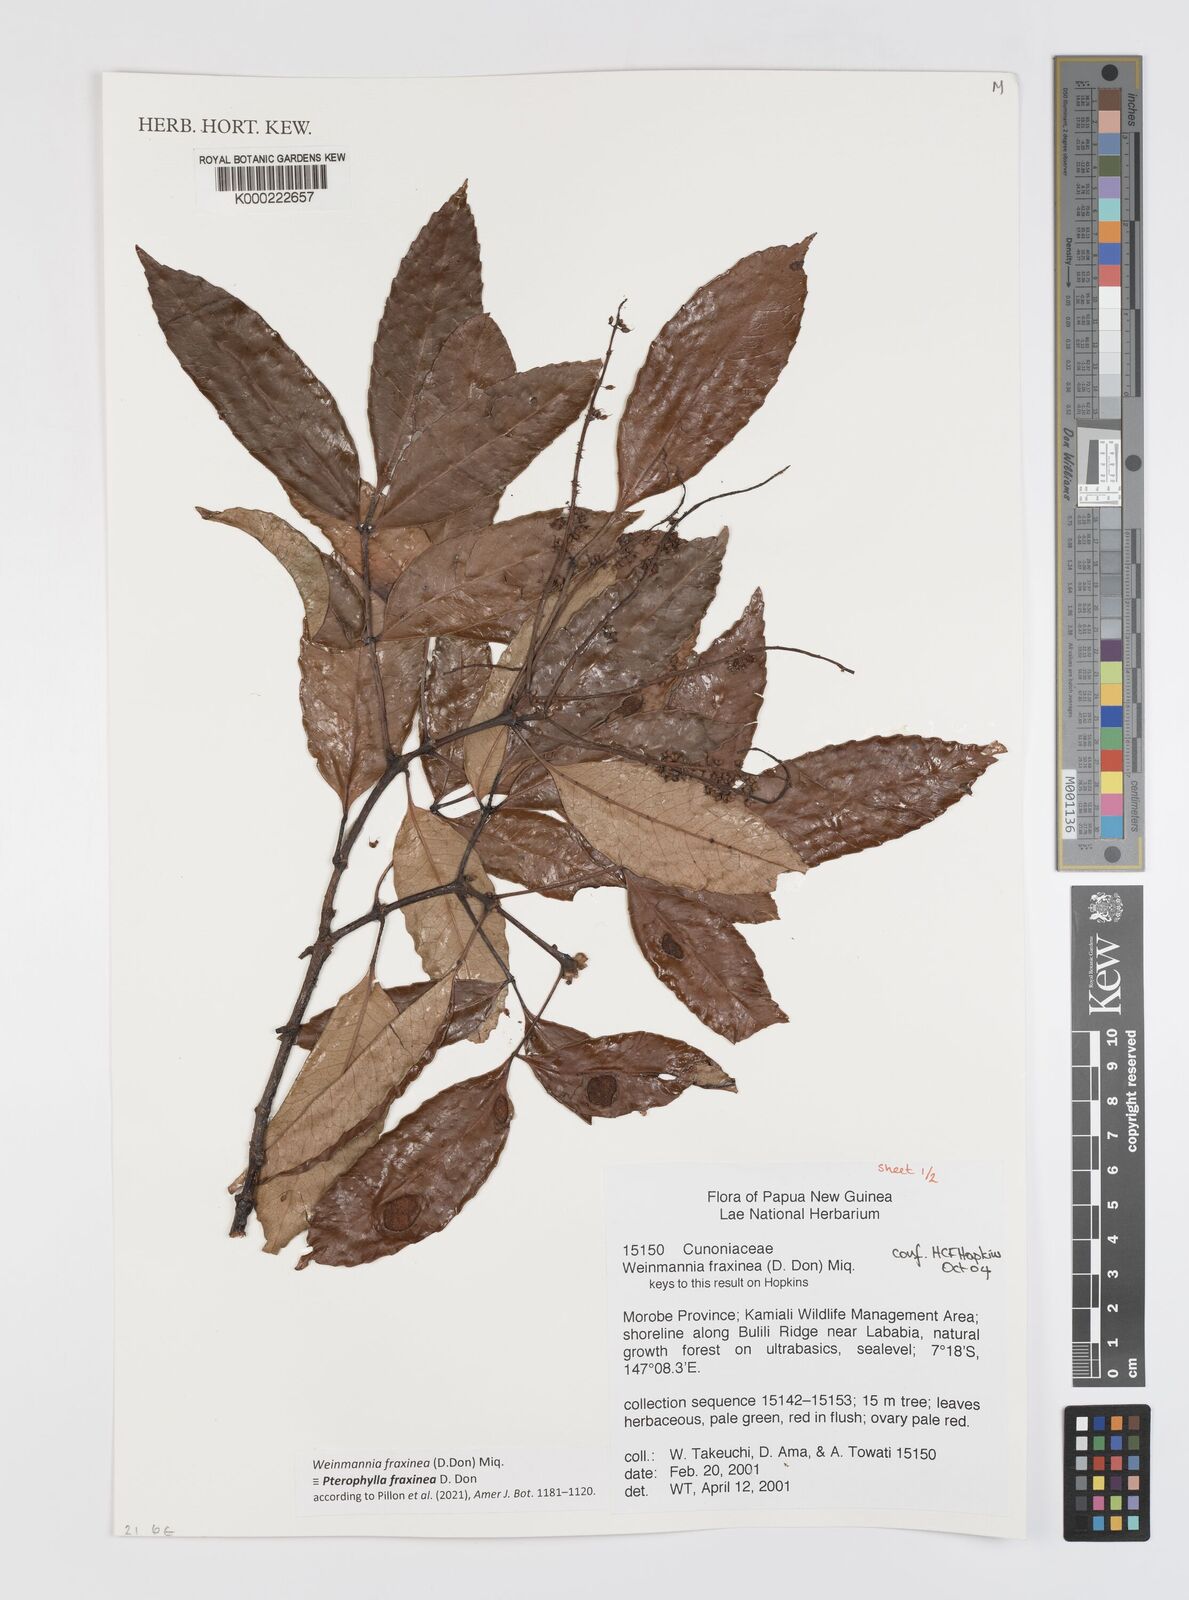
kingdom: Plantae
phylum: Tracheophyta
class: Magnoliopsida
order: Oxalidales
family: Cunoniaceae
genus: Pterophylla
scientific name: Pterophylla fraxinea
